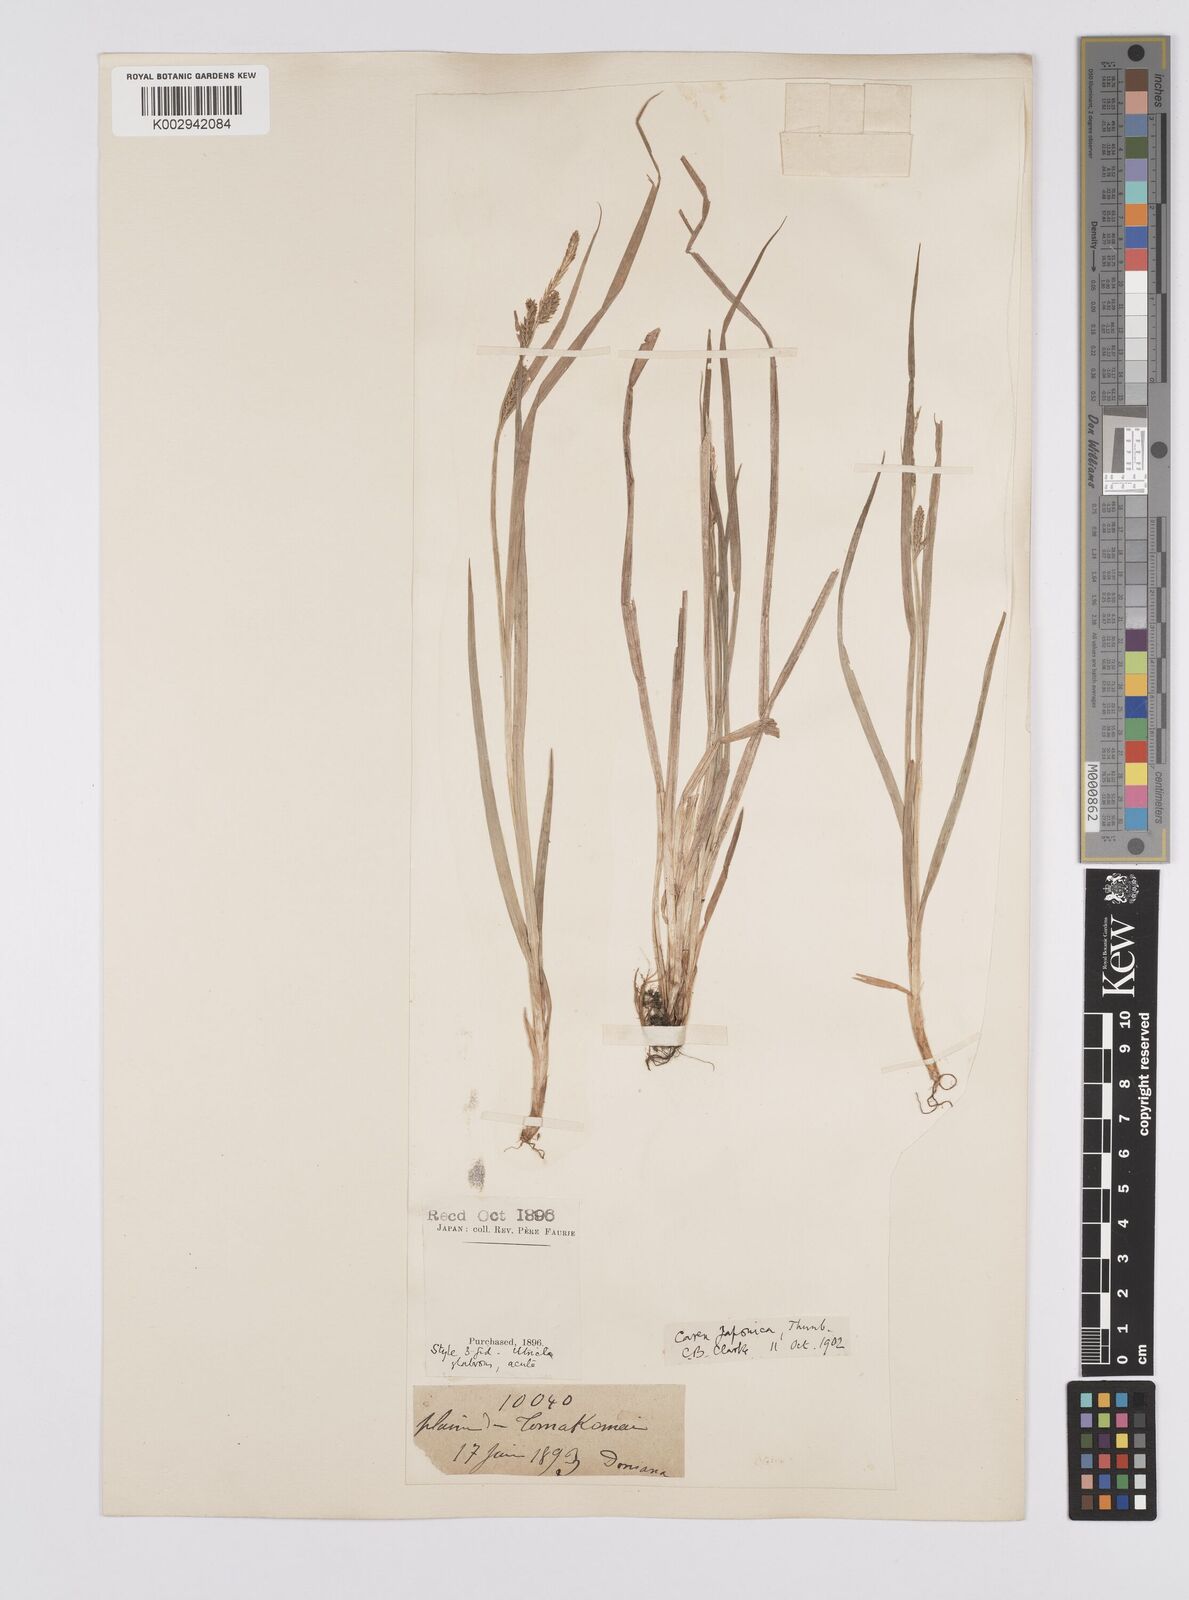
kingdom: Plantae
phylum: Tracheophyta
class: Liliopsida
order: Poales
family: Cyperaceae
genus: Carex
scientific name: Carex japonica
